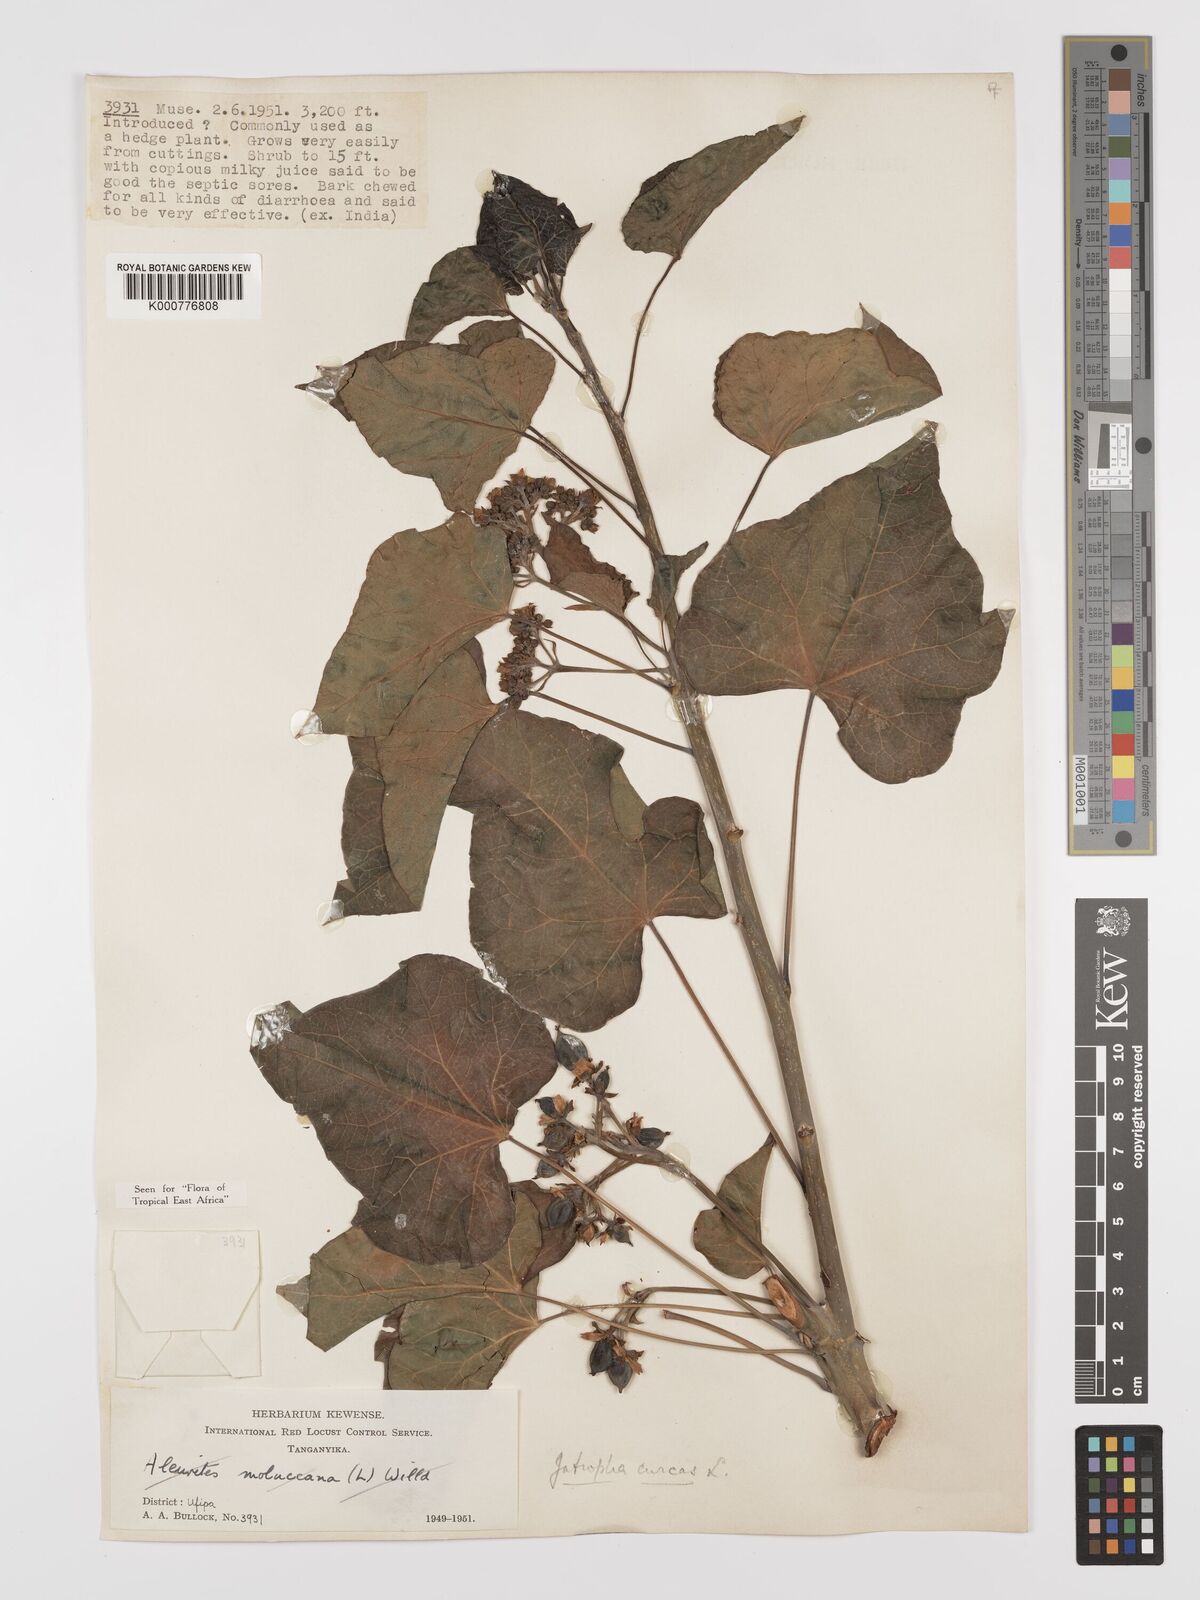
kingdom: Plantae
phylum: Tracheophyta
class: Magnoliopsida
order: Malpighiales
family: Euphorbiaceae
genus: Jatropha
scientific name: Jatropha curcas
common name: Barbados nut
